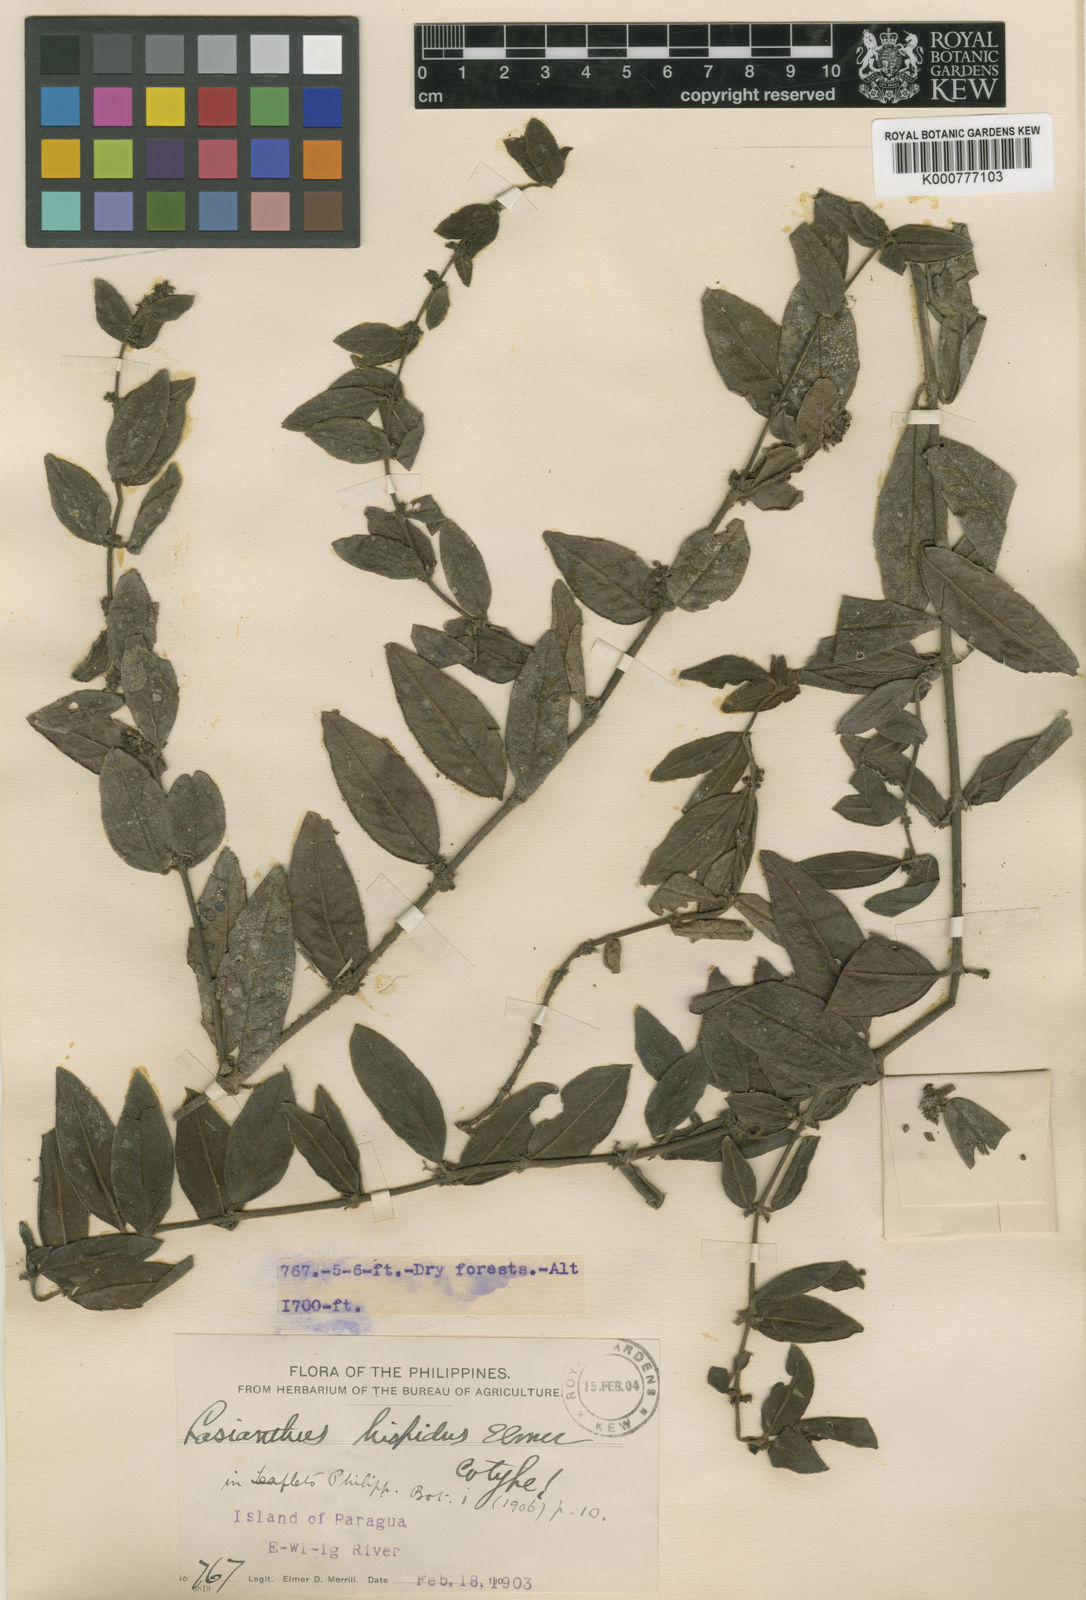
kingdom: Plantae
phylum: Tracheophyta
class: Magnoliopsida
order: Gentianales
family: Rubiaceae
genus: Exallage
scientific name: Exallage perhispida
